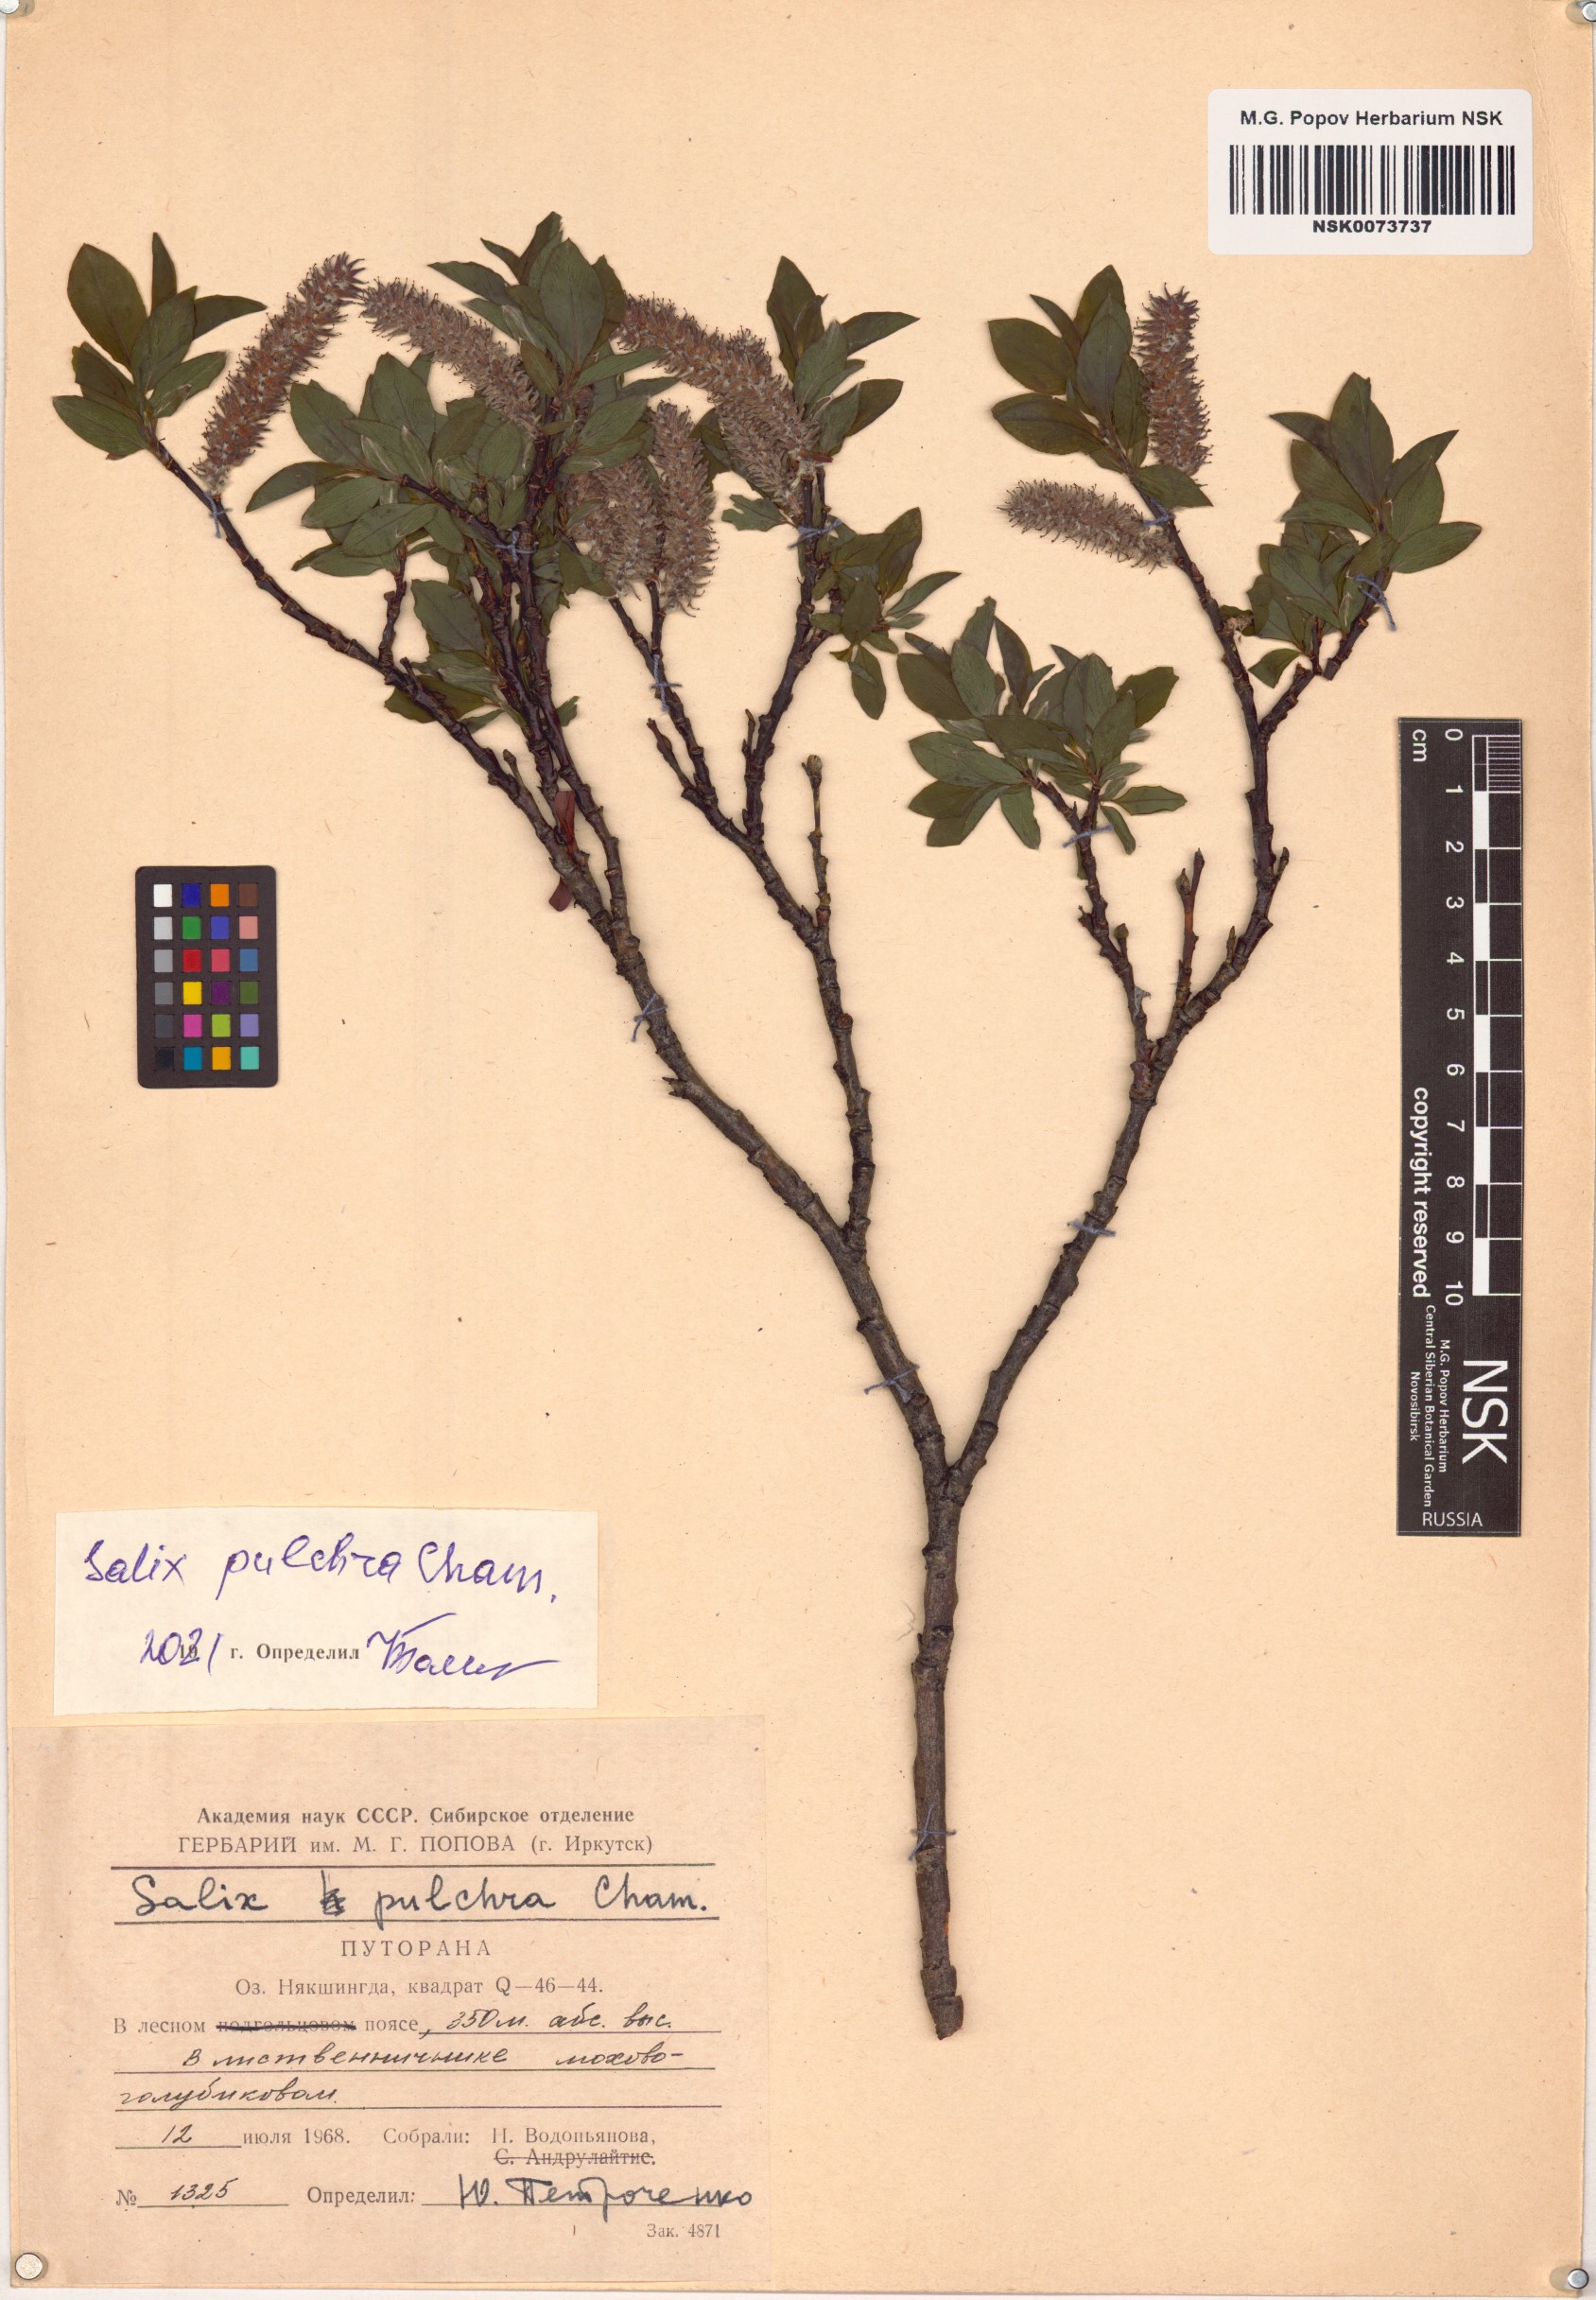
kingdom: Plantae
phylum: Tracheophyta
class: Magnoliopsida
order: Malpighiales
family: Salicaceae
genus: Salix
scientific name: Salix pulchra
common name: Diamond-leaved willow
